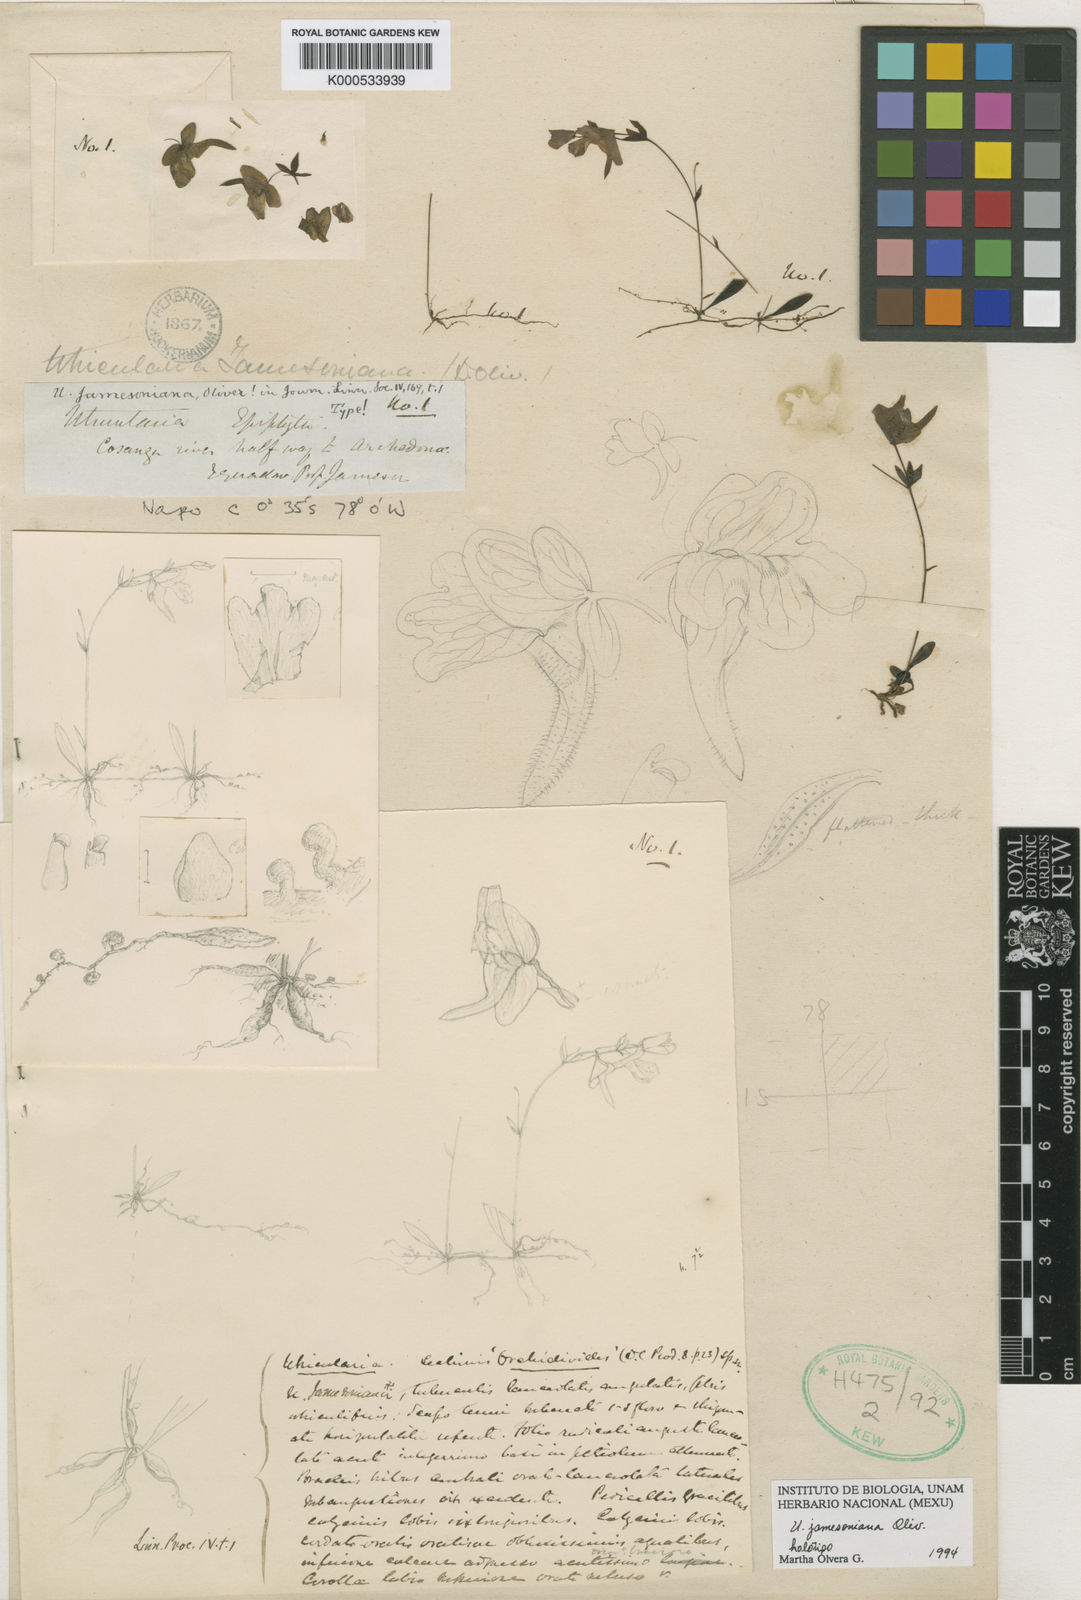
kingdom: Plantae
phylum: Tracheophyta
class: Magnoliopsida
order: Lamiales
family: Lentibulariaceae
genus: Utricularia
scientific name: Utricularia jamesoniana
